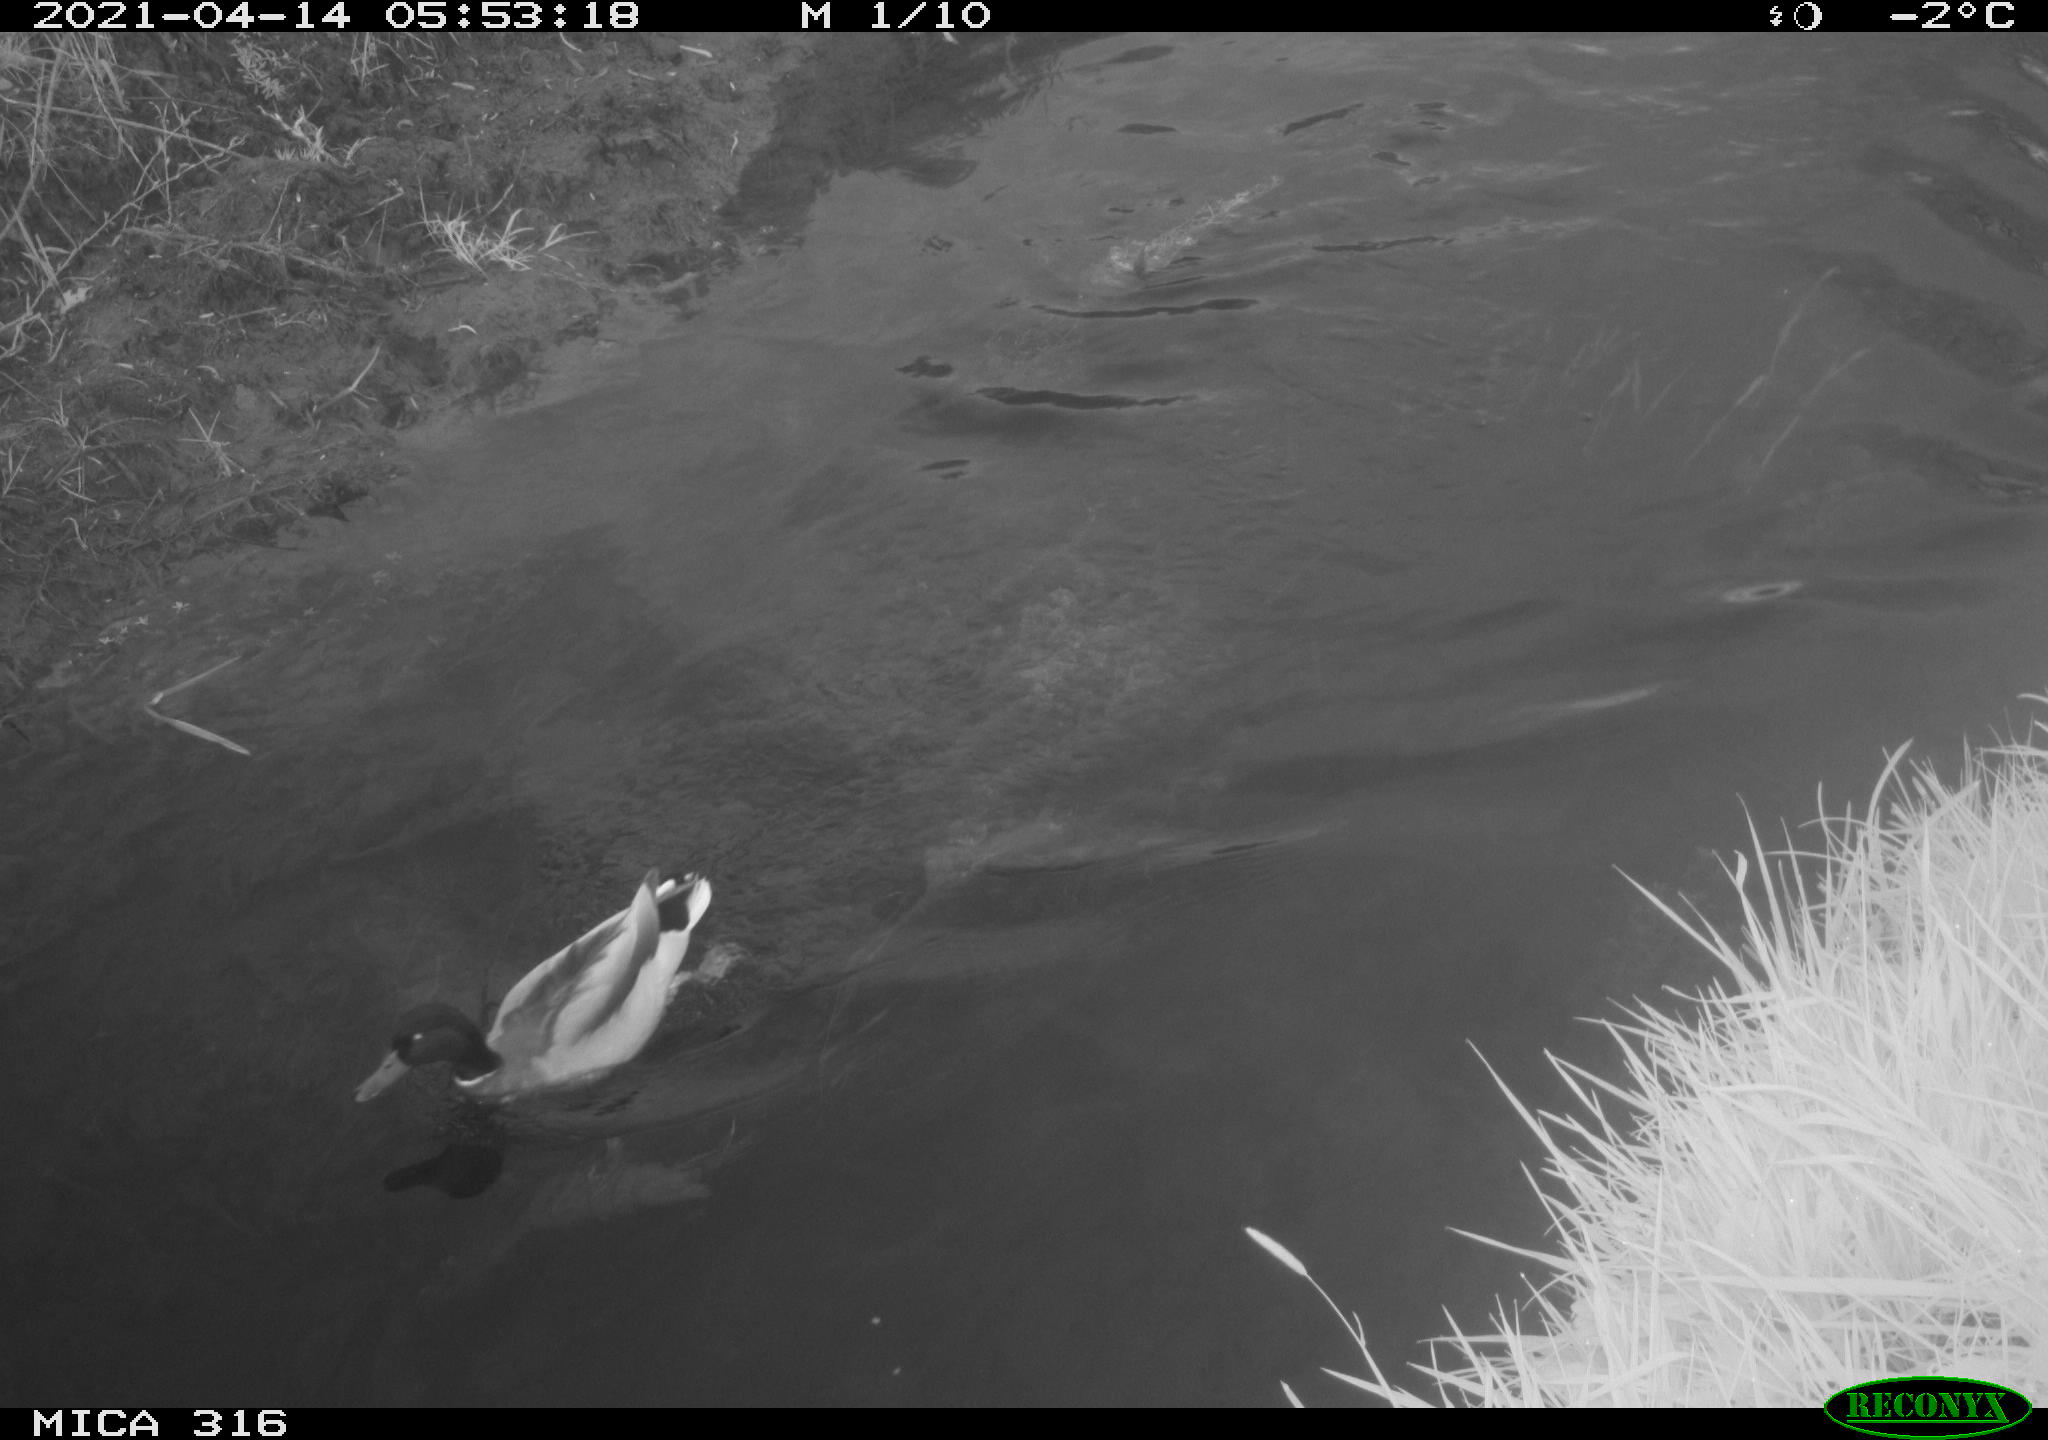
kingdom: Animalia
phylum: Chordata
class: Aves
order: Anseriformes
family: Anatidae
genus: Anas
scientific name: Anas platyrhynchos
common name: Mallard
